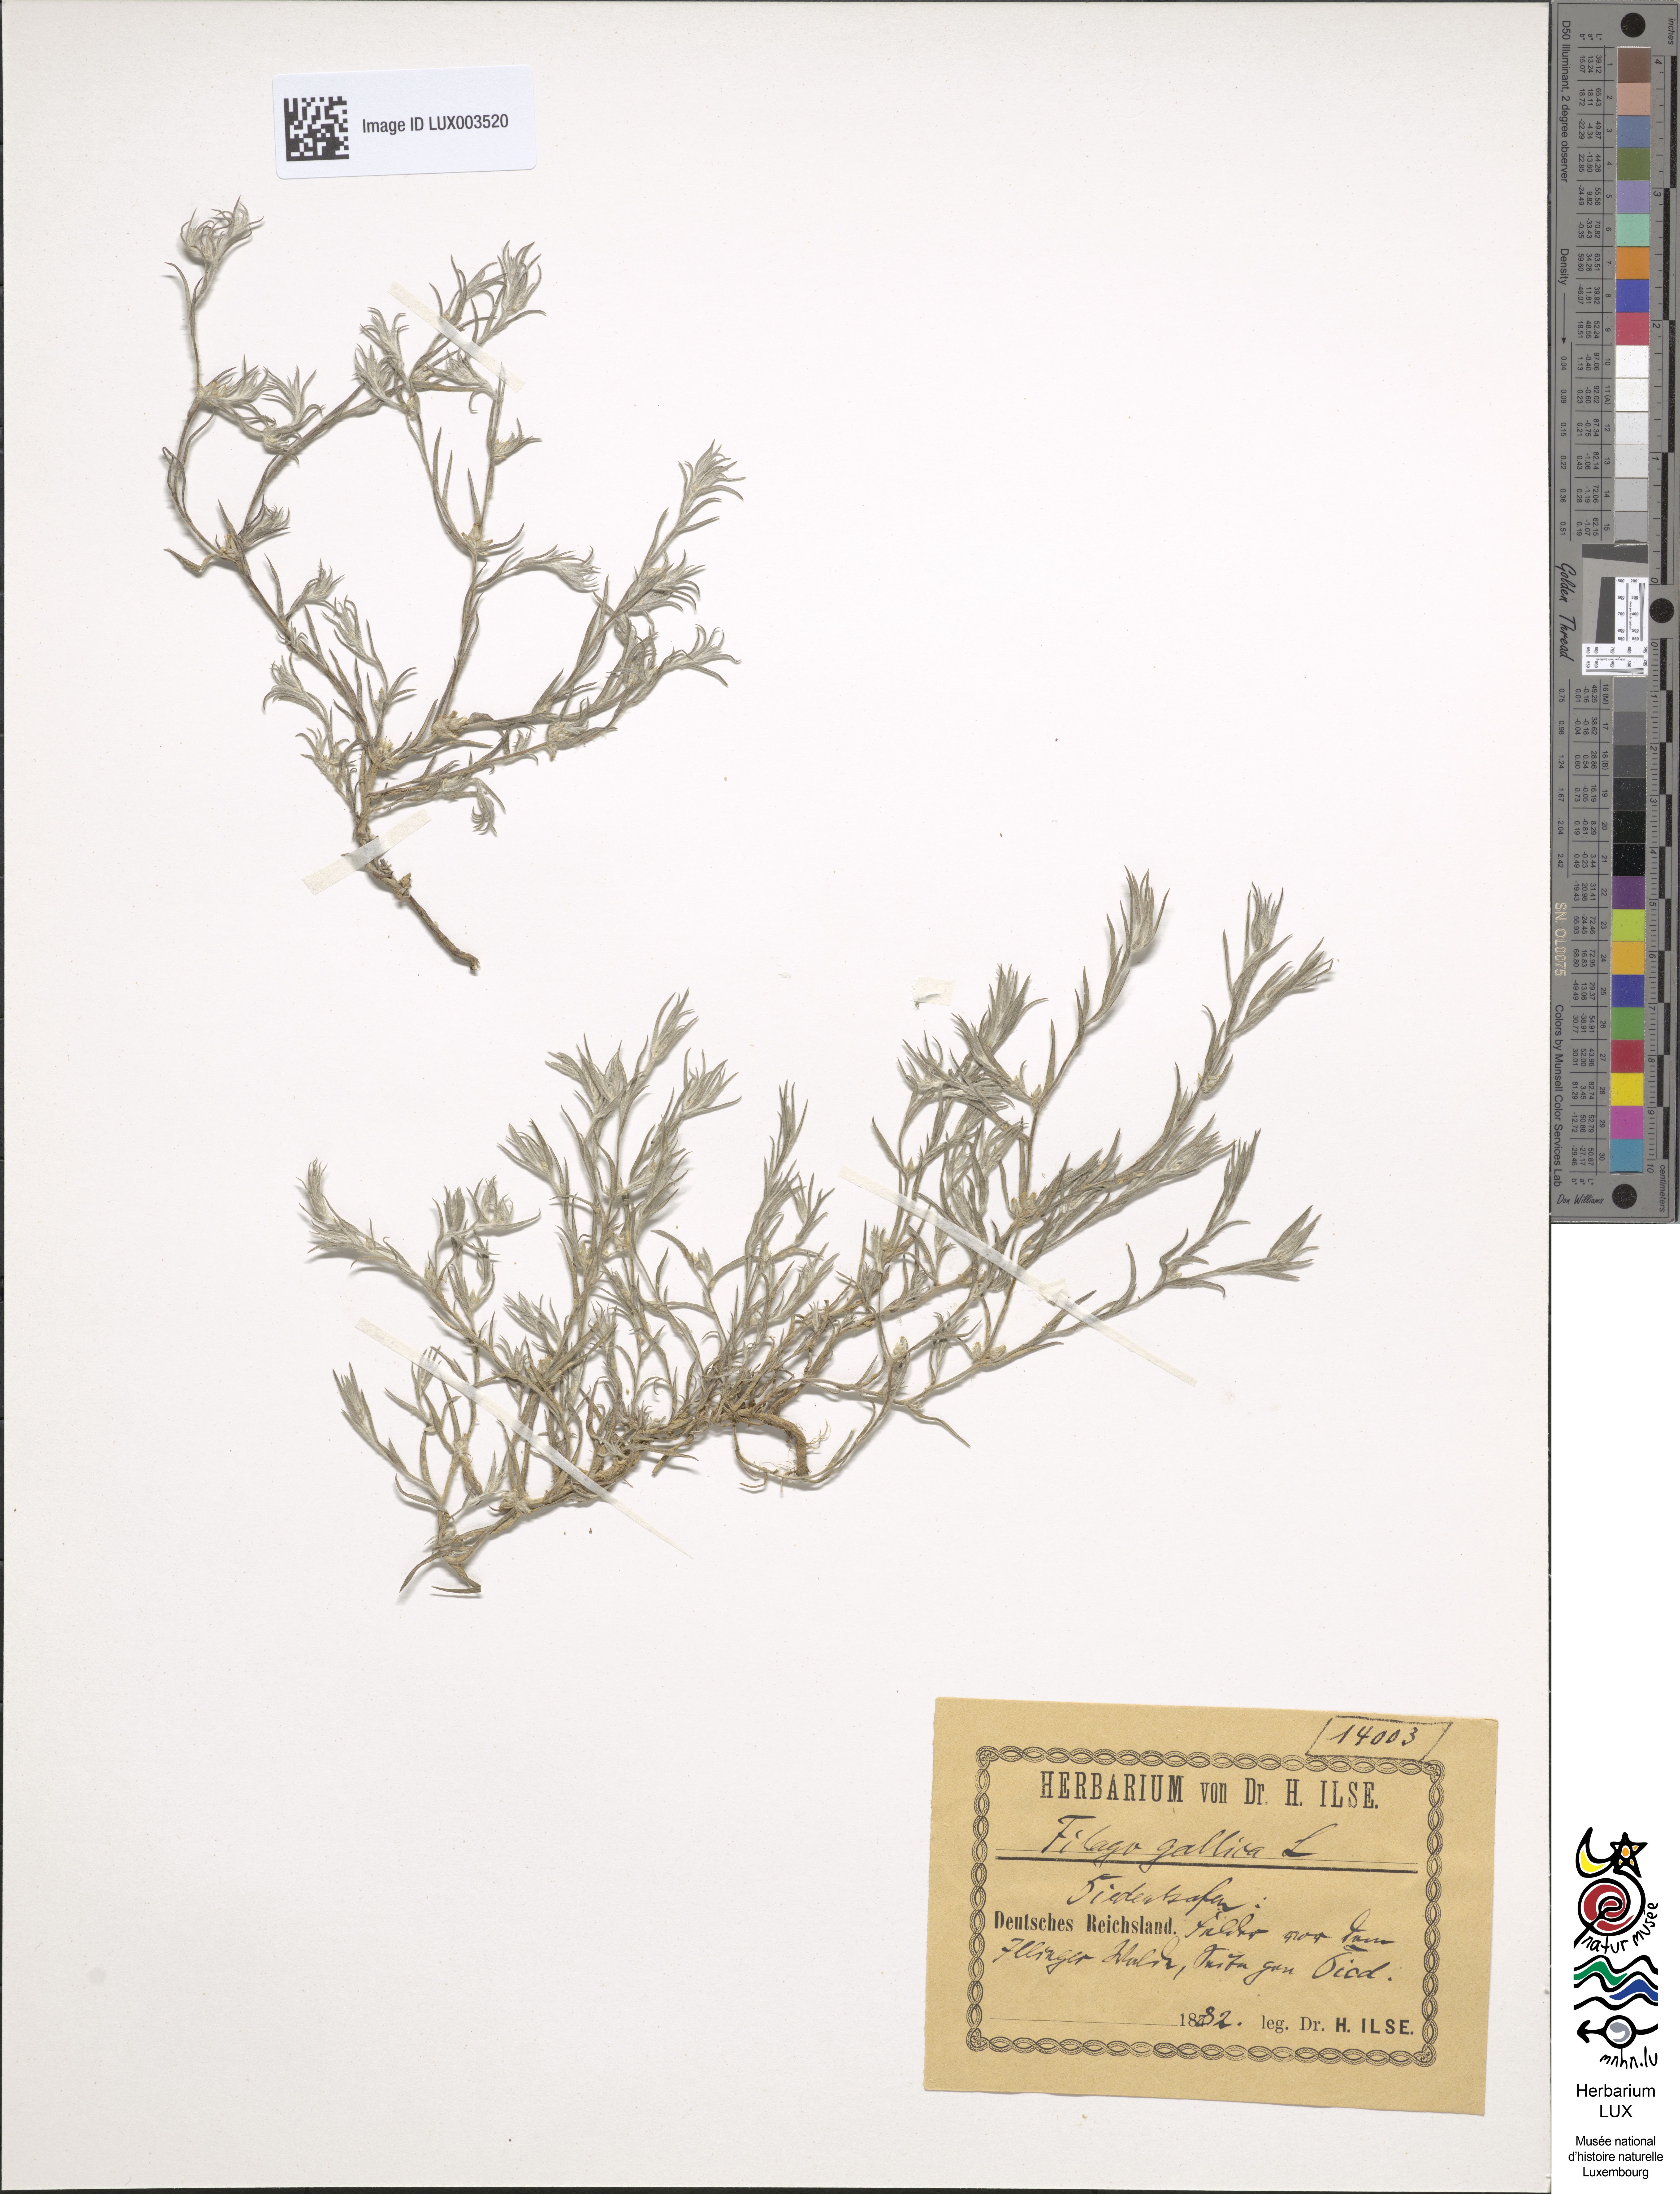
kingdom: Plantae
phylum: Tracheophyta
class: Magnoliopsida
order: Asterales
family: Asteraceae
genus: Logfia
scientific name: Logfia gallica
